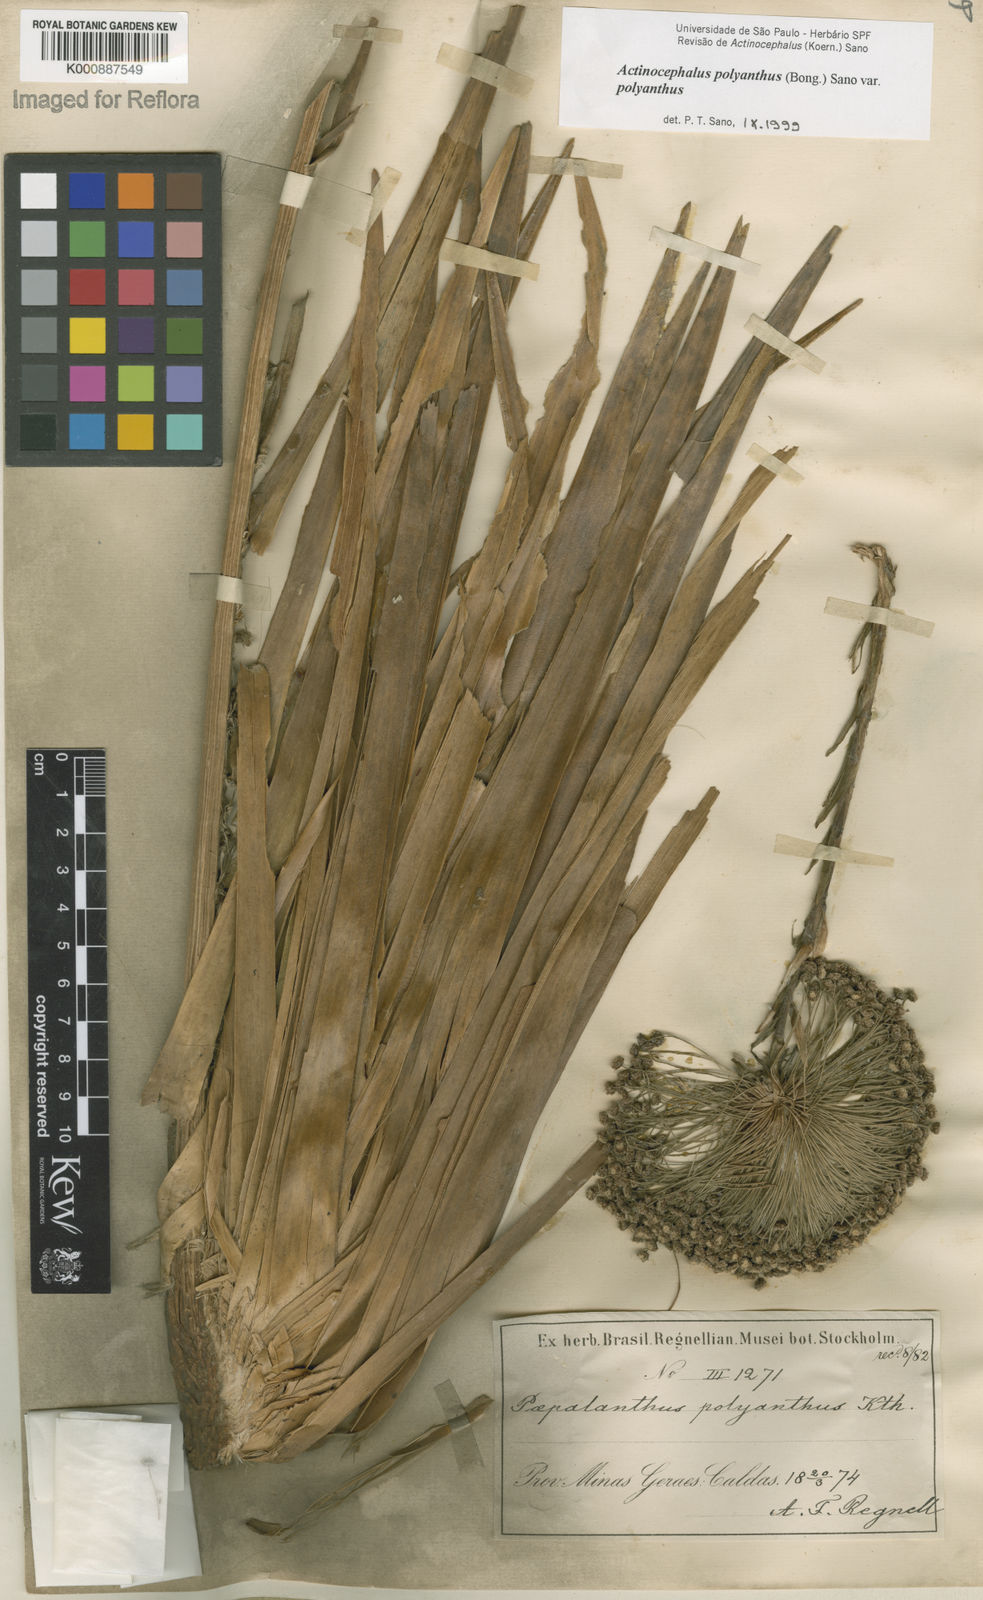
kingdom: Plantae
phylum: Tracheophyta
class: Liliopsida
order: Poales
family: Eriocaulaceae
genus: Paepalanthus
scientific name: Paepalanthus polyanthus
